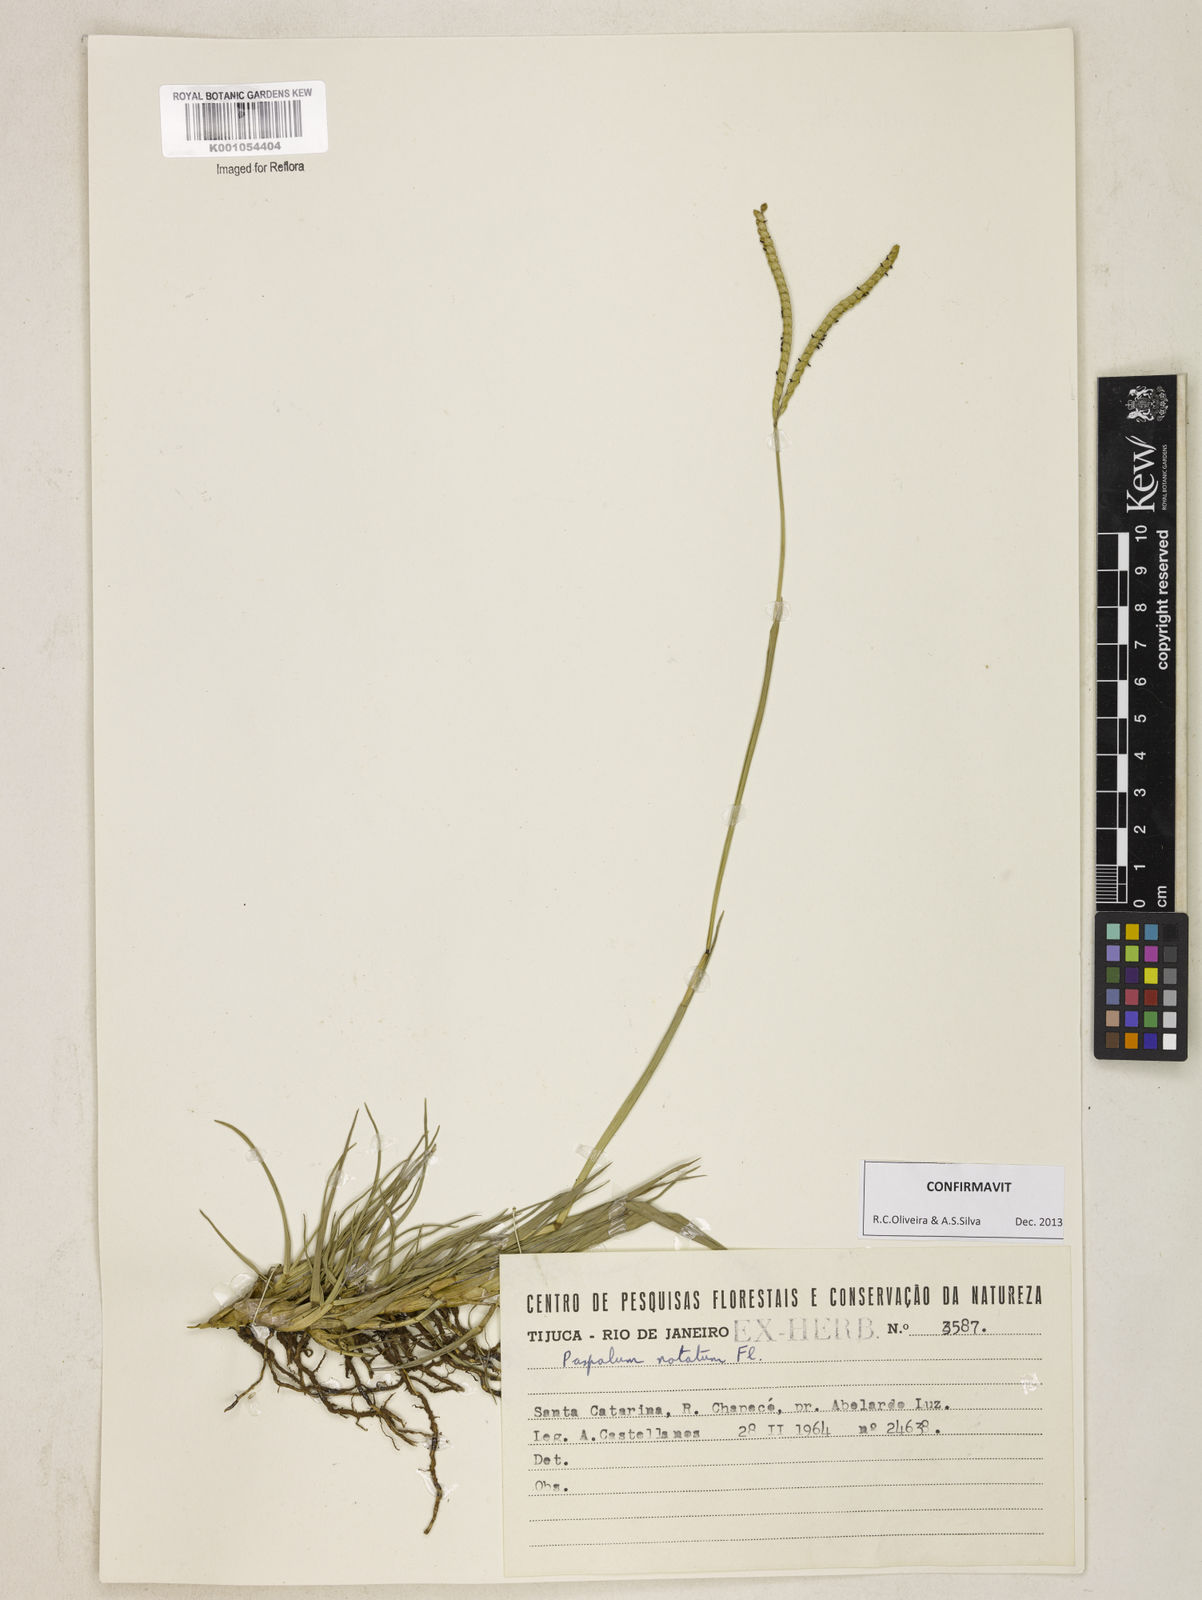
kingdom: Plantae
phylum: Tracheophyta
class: Liliopsida
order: Poales
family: Poaceae
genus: Paspalum
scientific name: Paspalum
